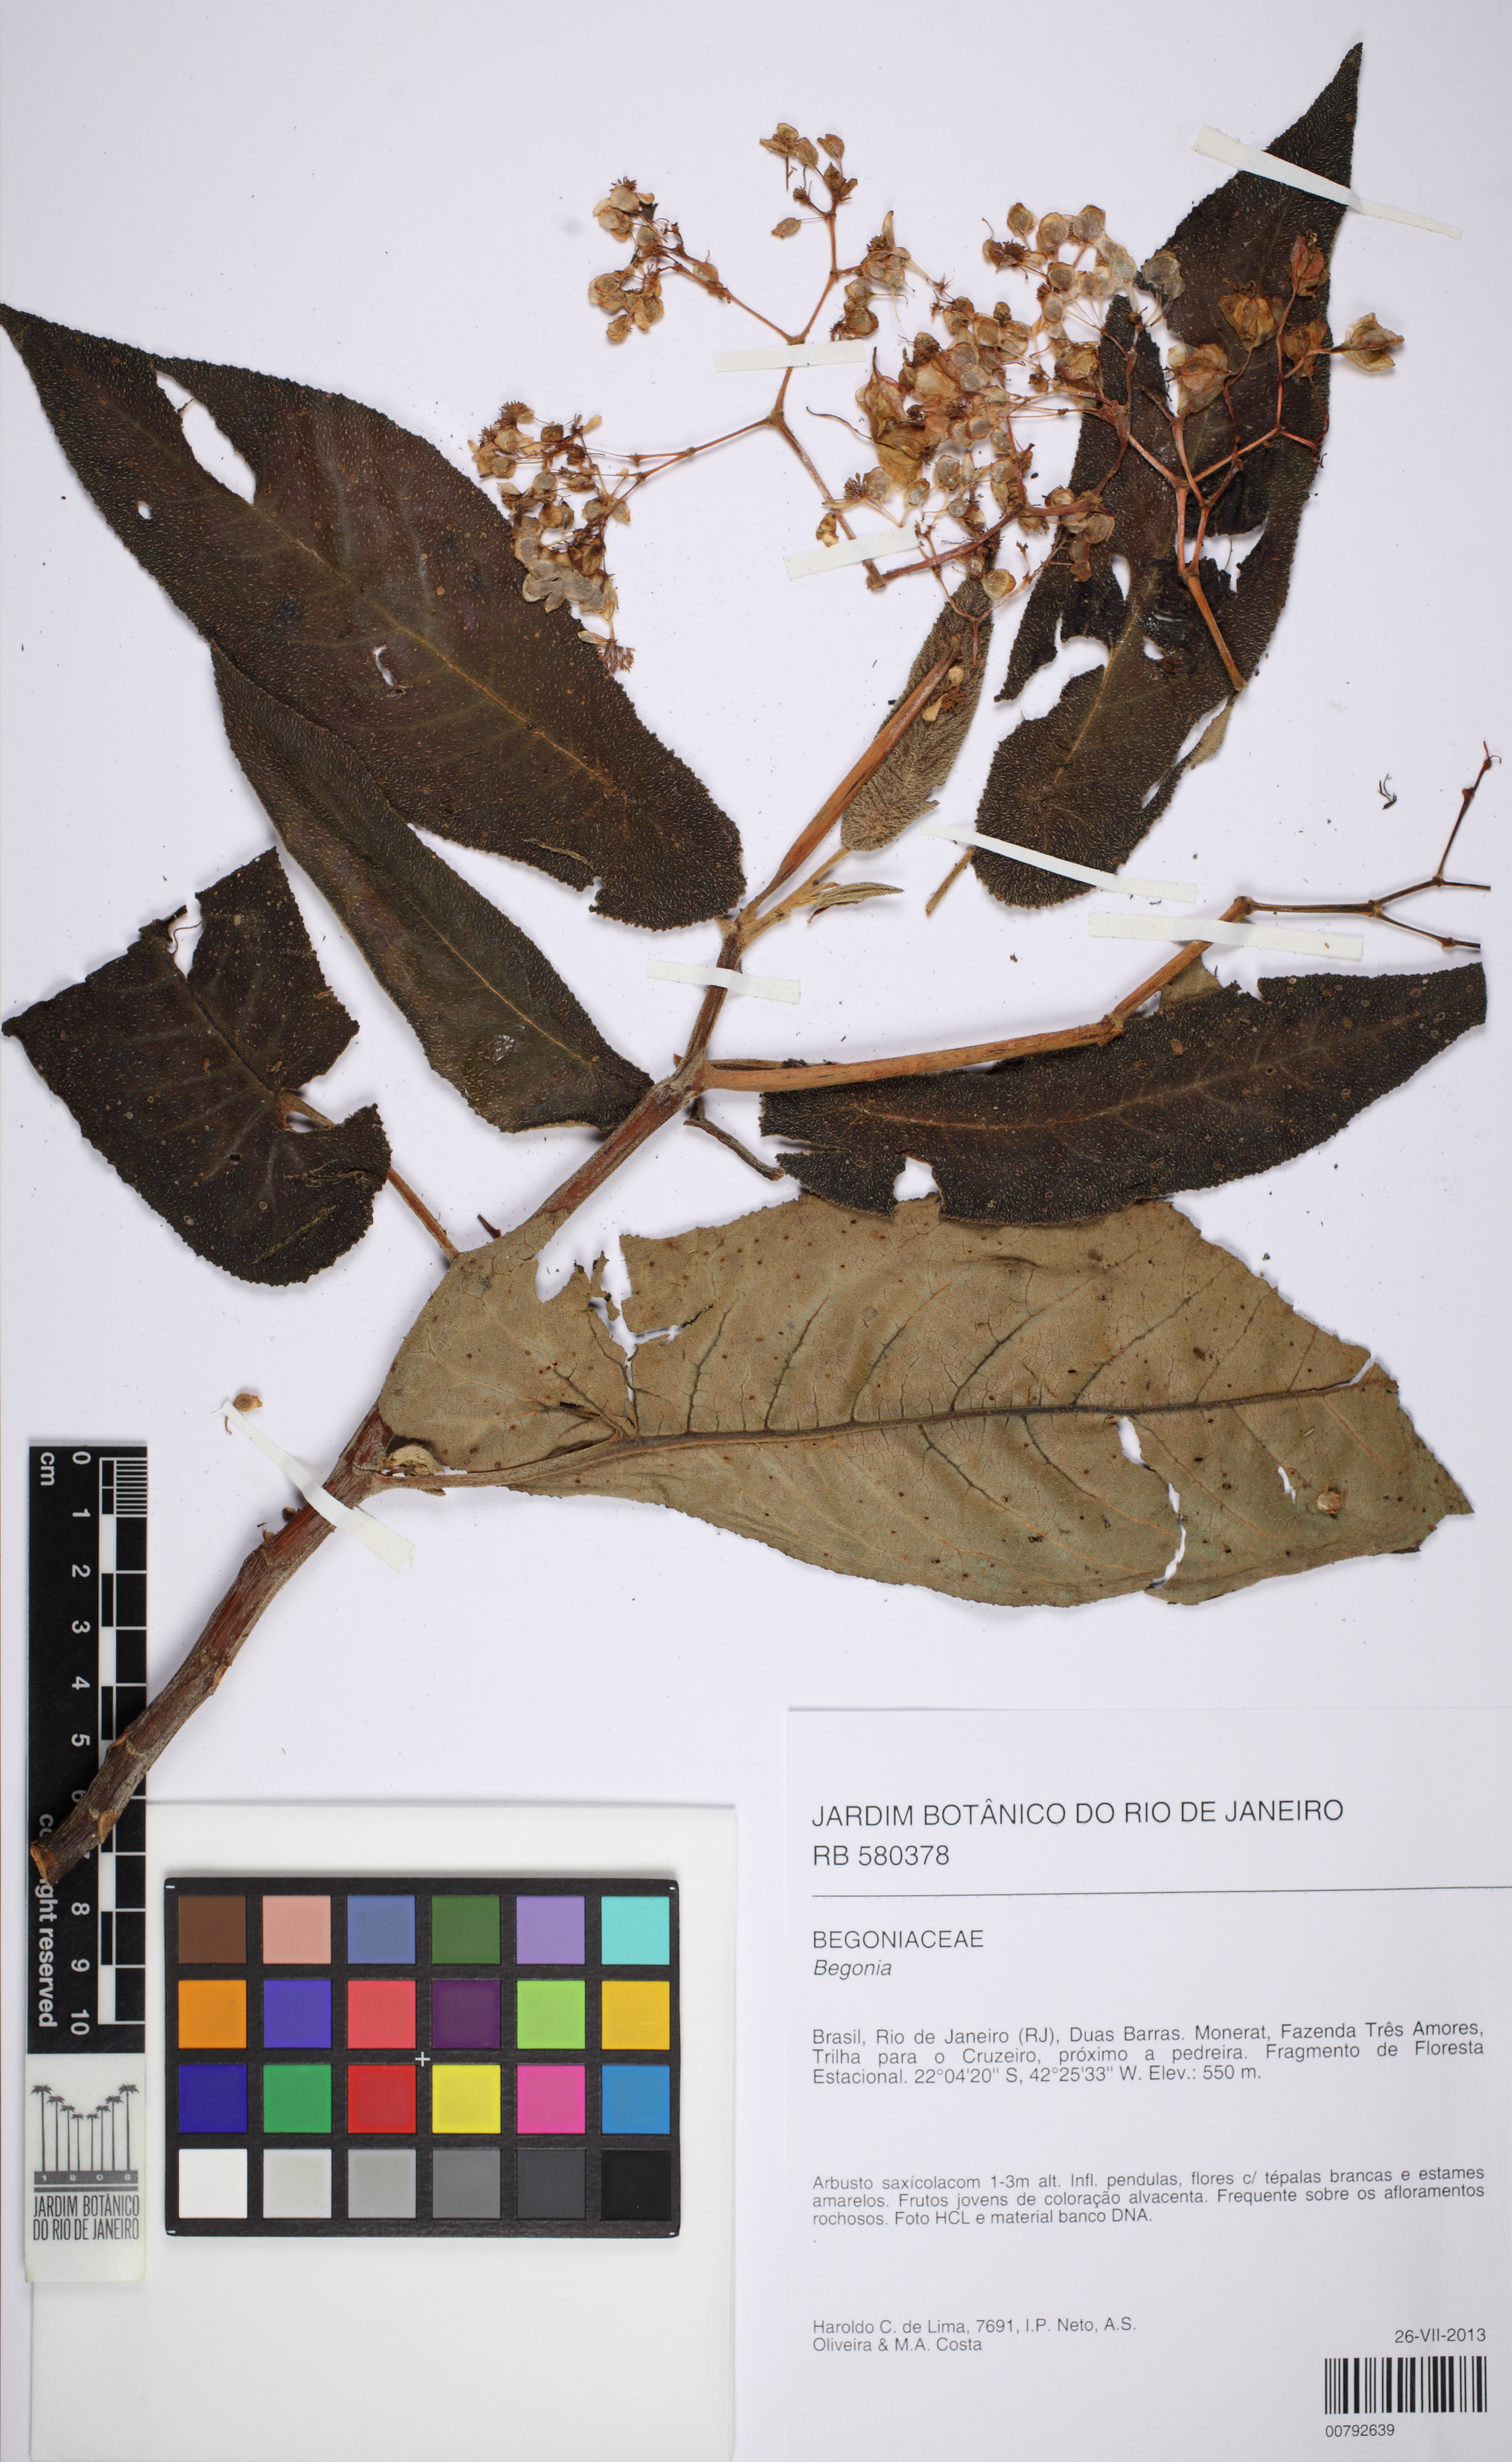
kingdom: Plantae
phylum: Tracheophyta
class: Magnoliopsida
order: Cucurbitales
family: Begoniaceae
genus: Begonia
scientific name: Begonia egregia
